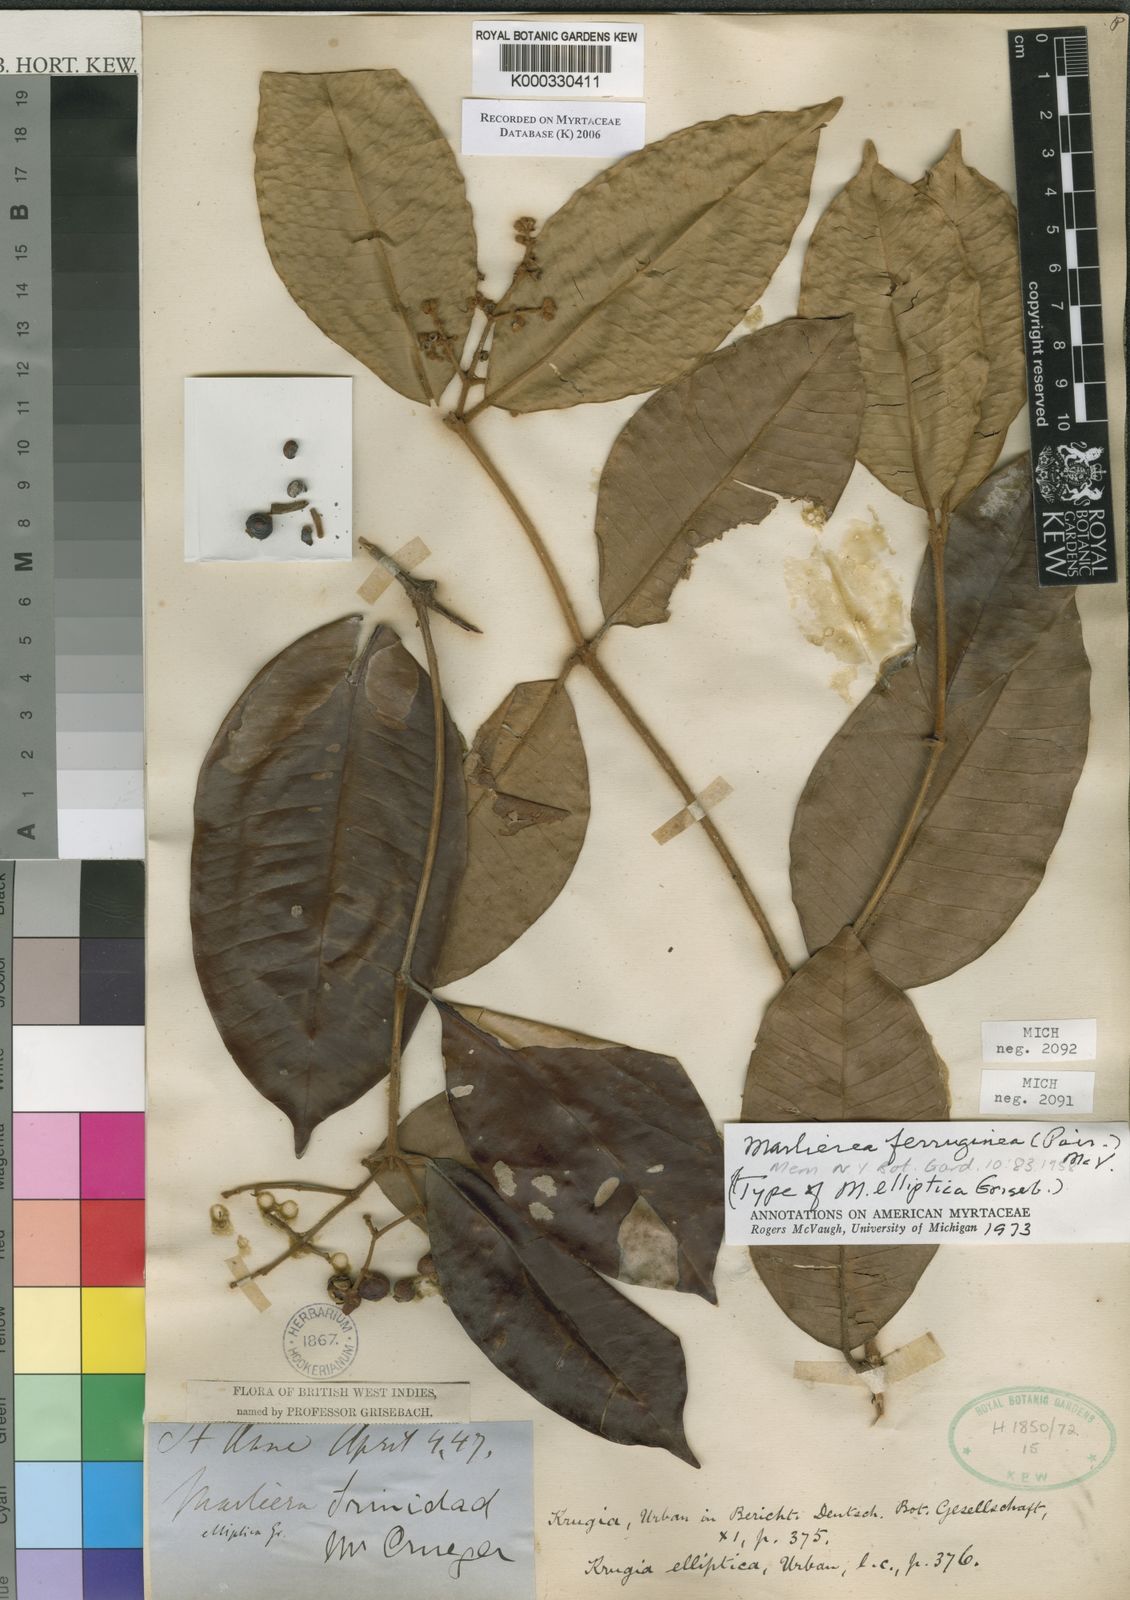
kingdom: Plantae
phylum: Tracheophyta
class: Magnoliopsida
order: Myrtales
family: Myrtaceae
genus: Myrcia
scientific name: Myrcia ferruginea
